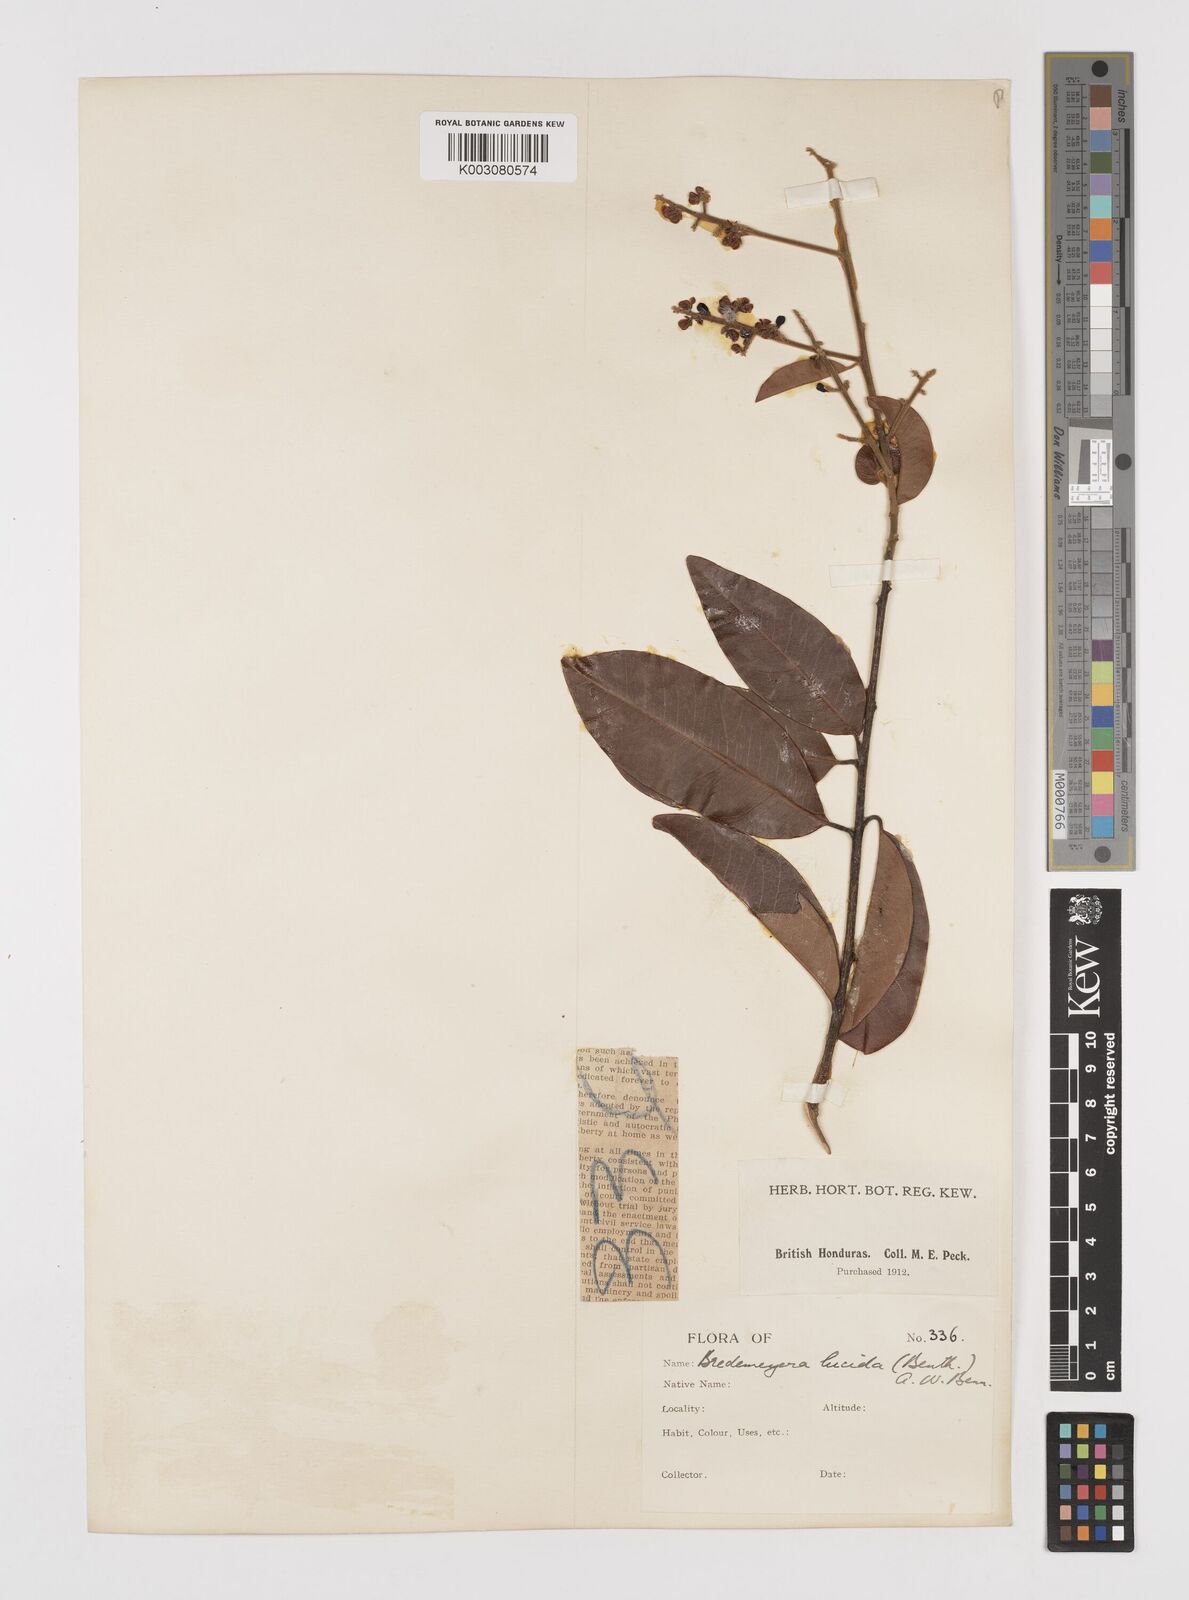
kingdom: Plantae
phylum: Tracheophyta
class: Magnoliopsida
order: Fabales
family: Polygalaceae
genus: Bredemeyera
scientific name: Bredemeyera lucida
